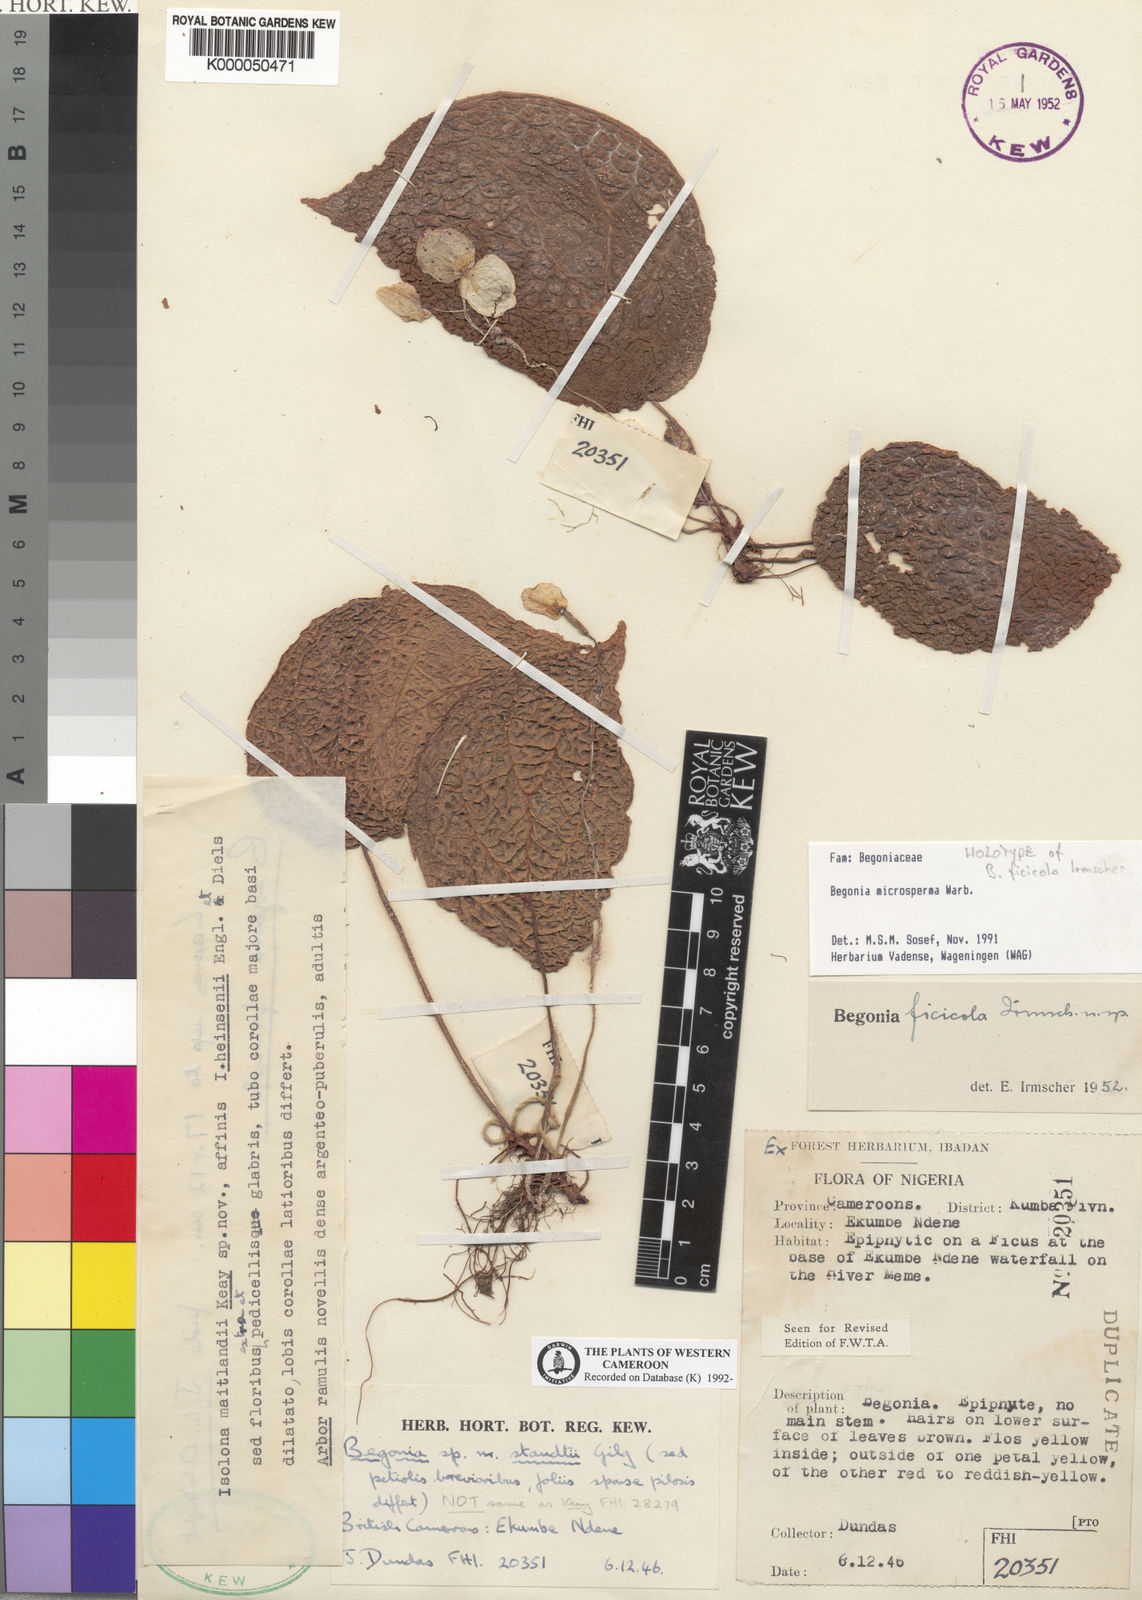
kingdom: Plantae
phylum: Tracheophyta
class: Magnoliopsida
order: Cucurbitales
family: Begoniaceae
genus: Begonia
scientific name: Begonia microsperma
